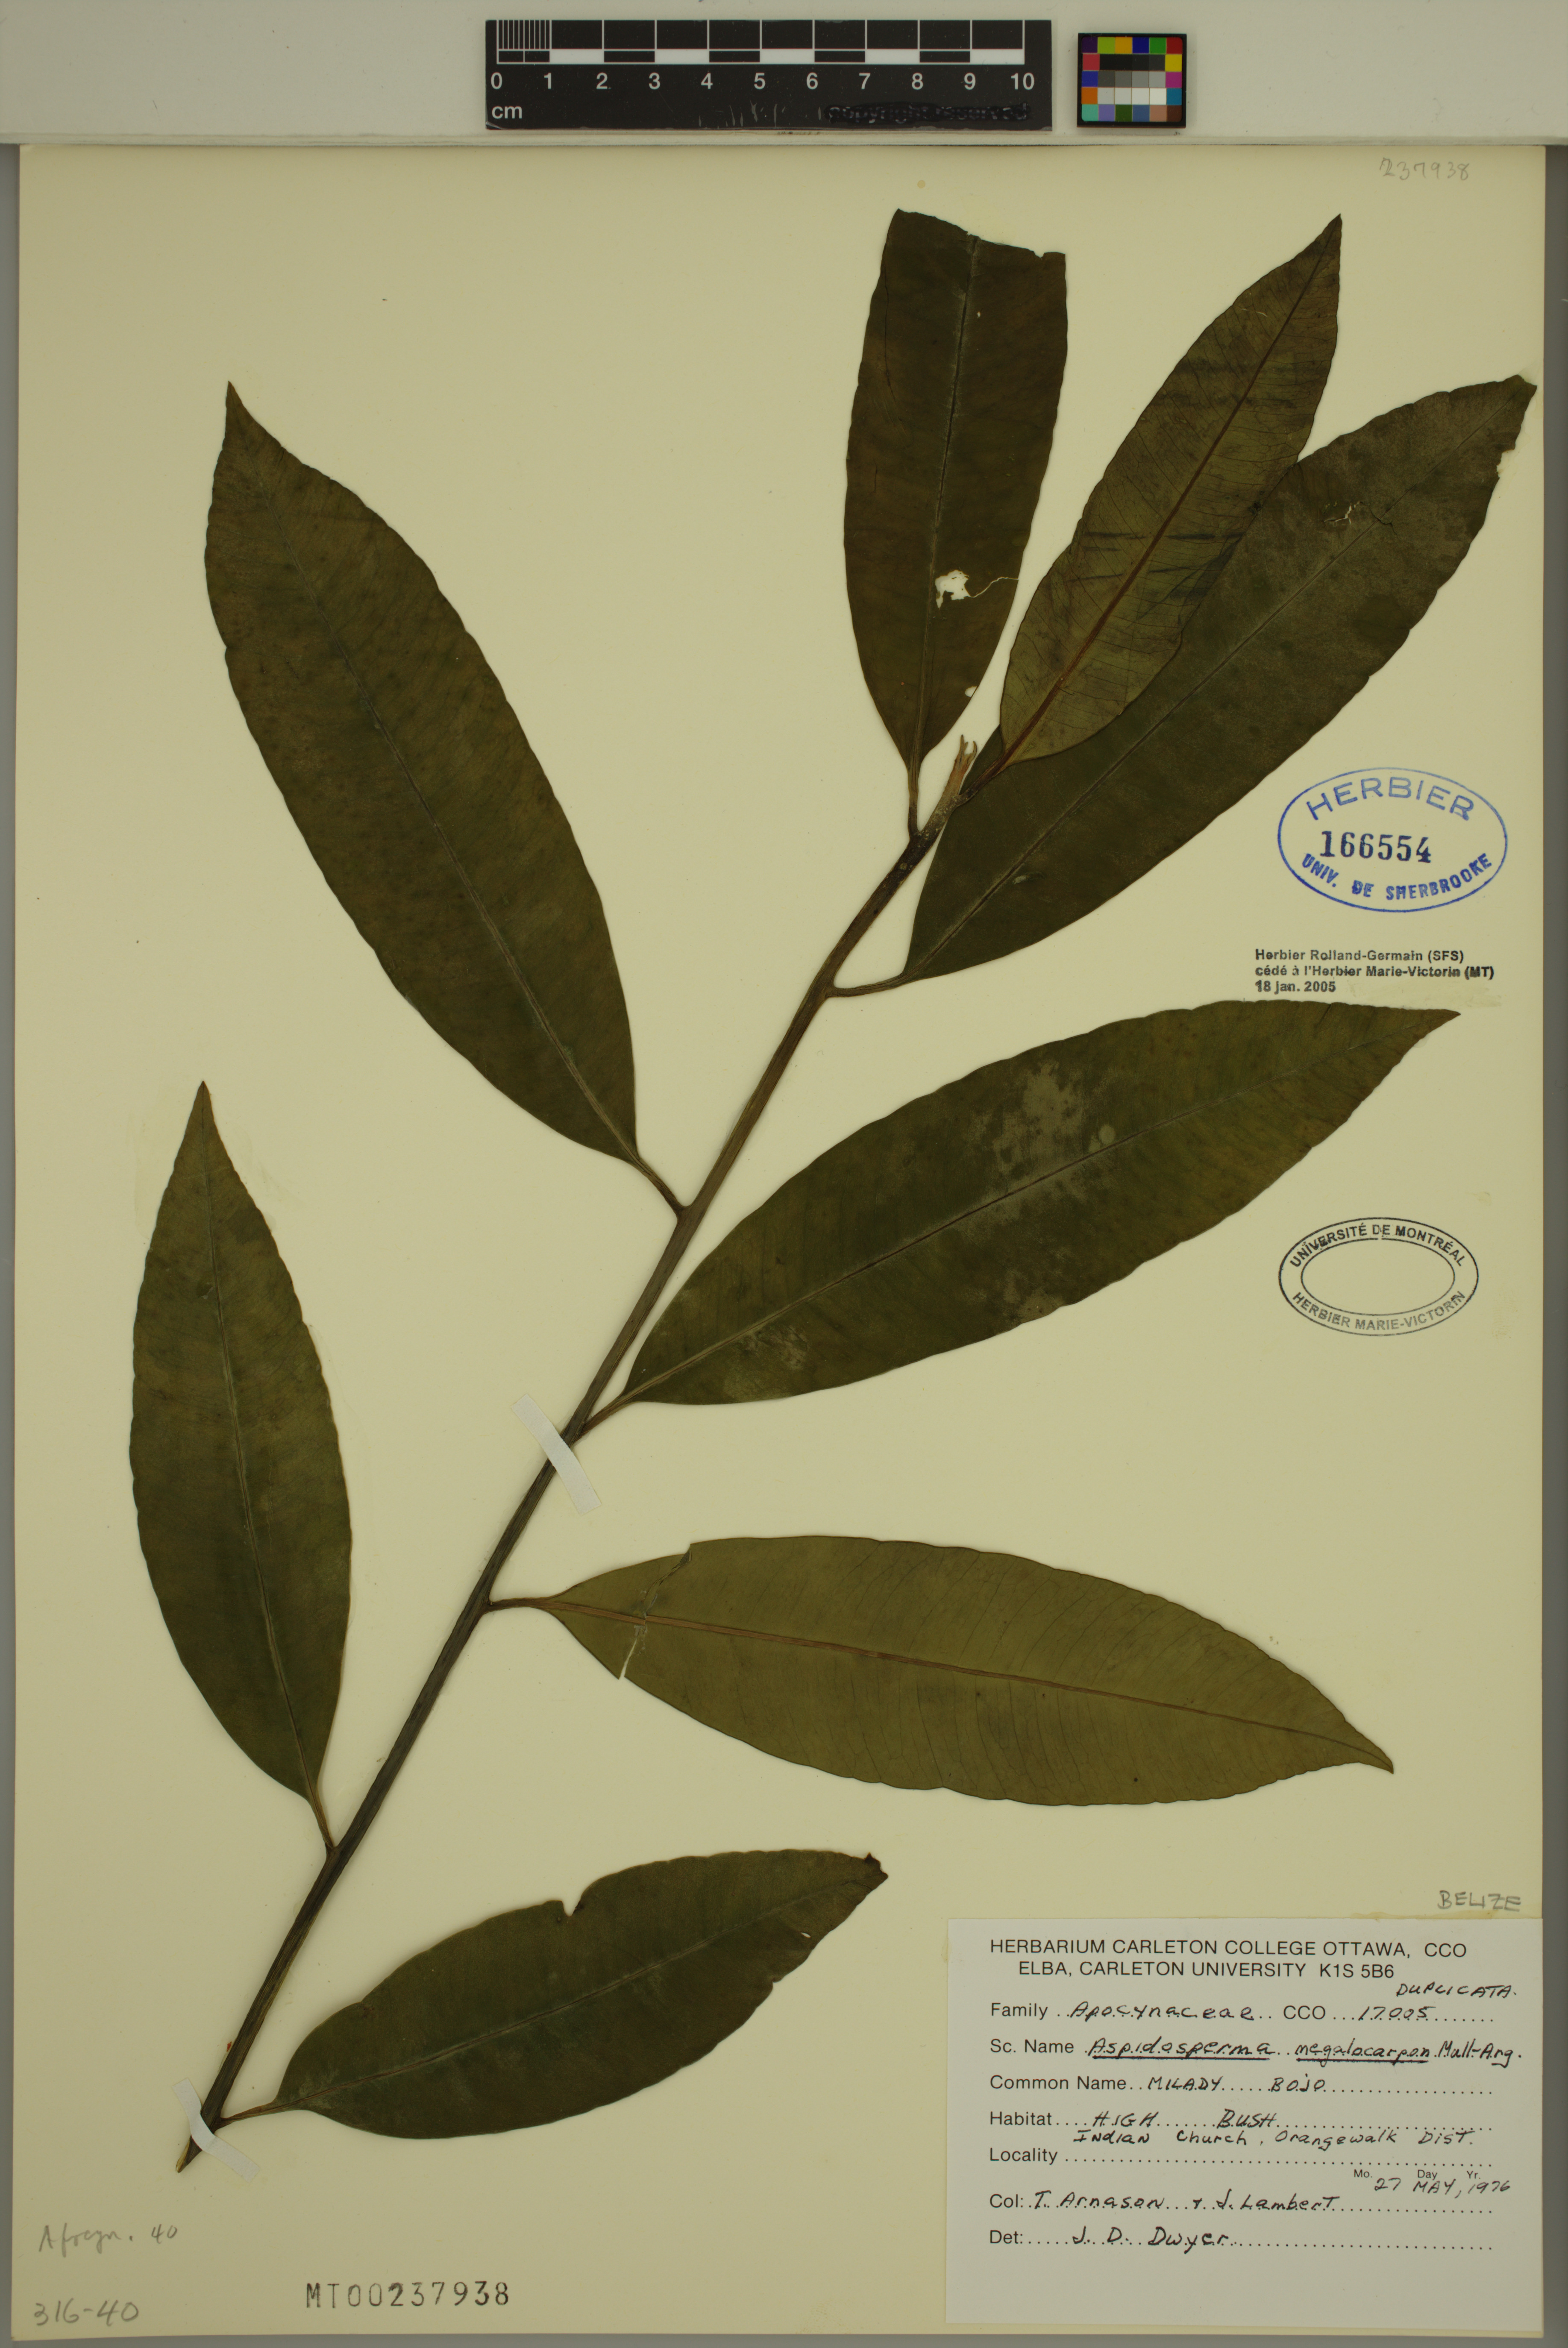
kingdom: Plantae
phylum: Tracheophyta
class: Magnoliopsida
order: Gentianales
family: Apocynaceae
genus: Aspidosperma
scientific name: Aspidosperma megalocarpon
